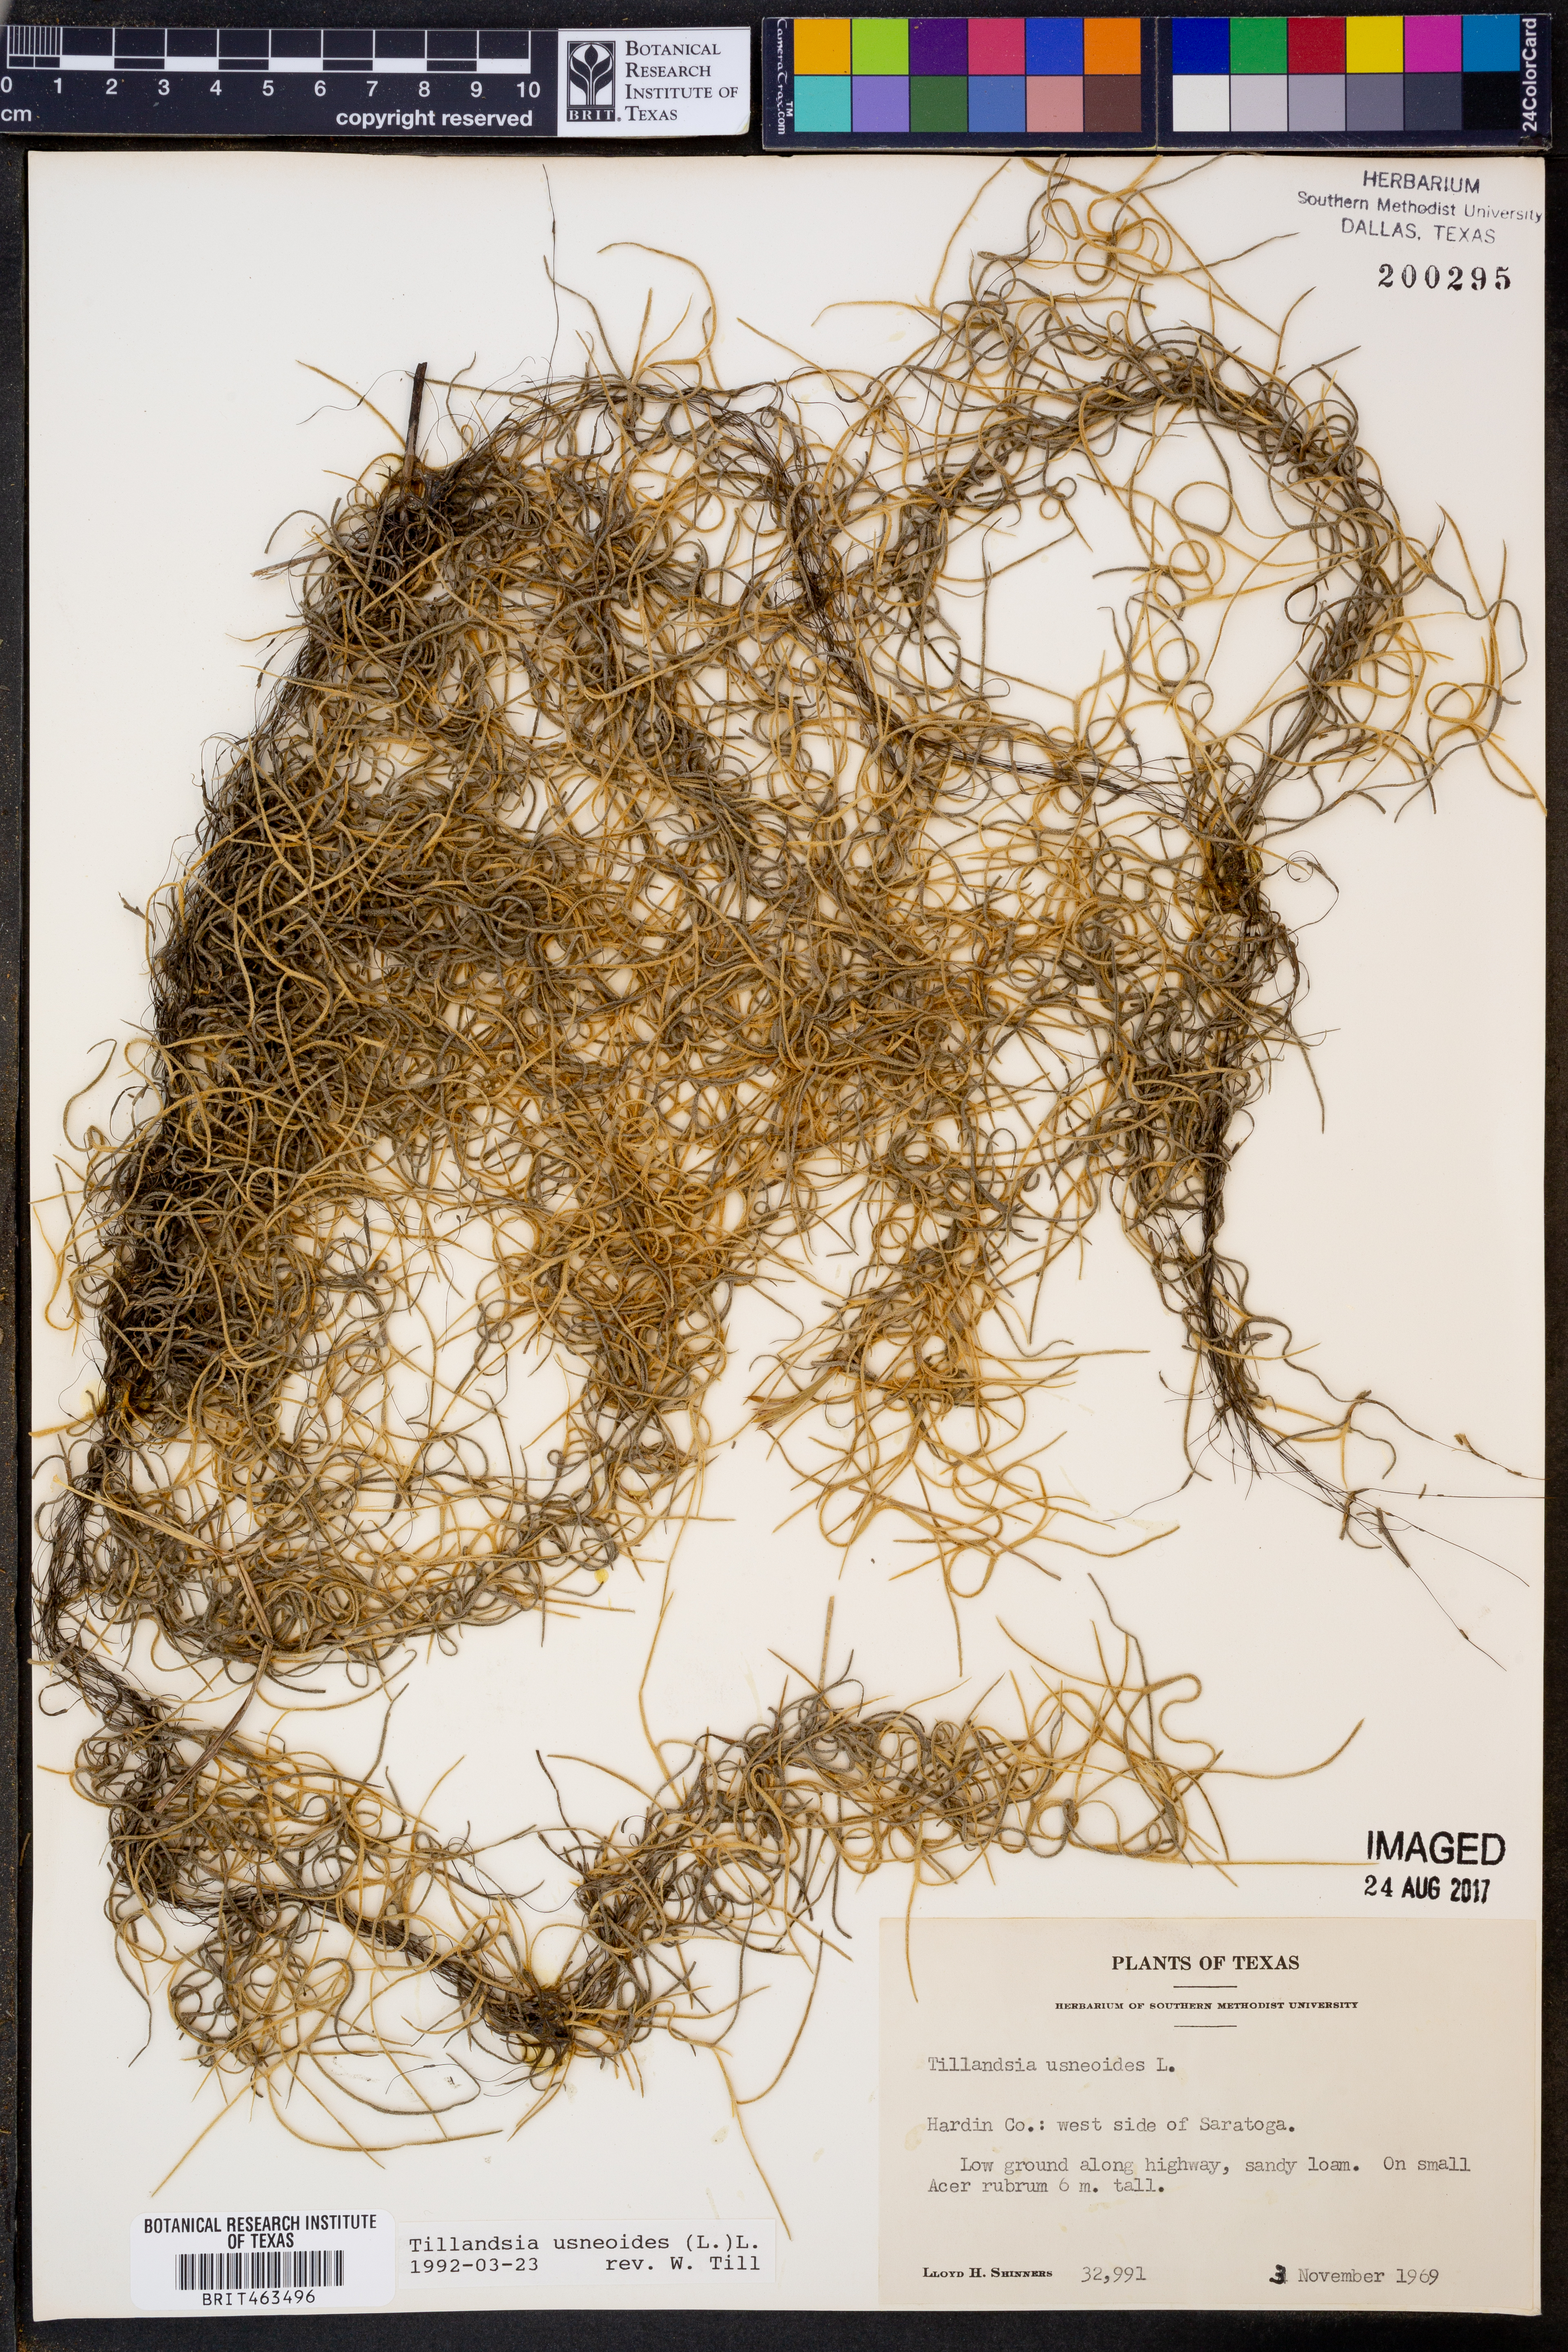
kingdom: Plantae
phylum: Tracheophyta
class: Liliopsida
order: Poales
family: Bromeliaceae
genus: Tillandsia
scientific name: Tillandsia usneoides
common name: Spanish moss
